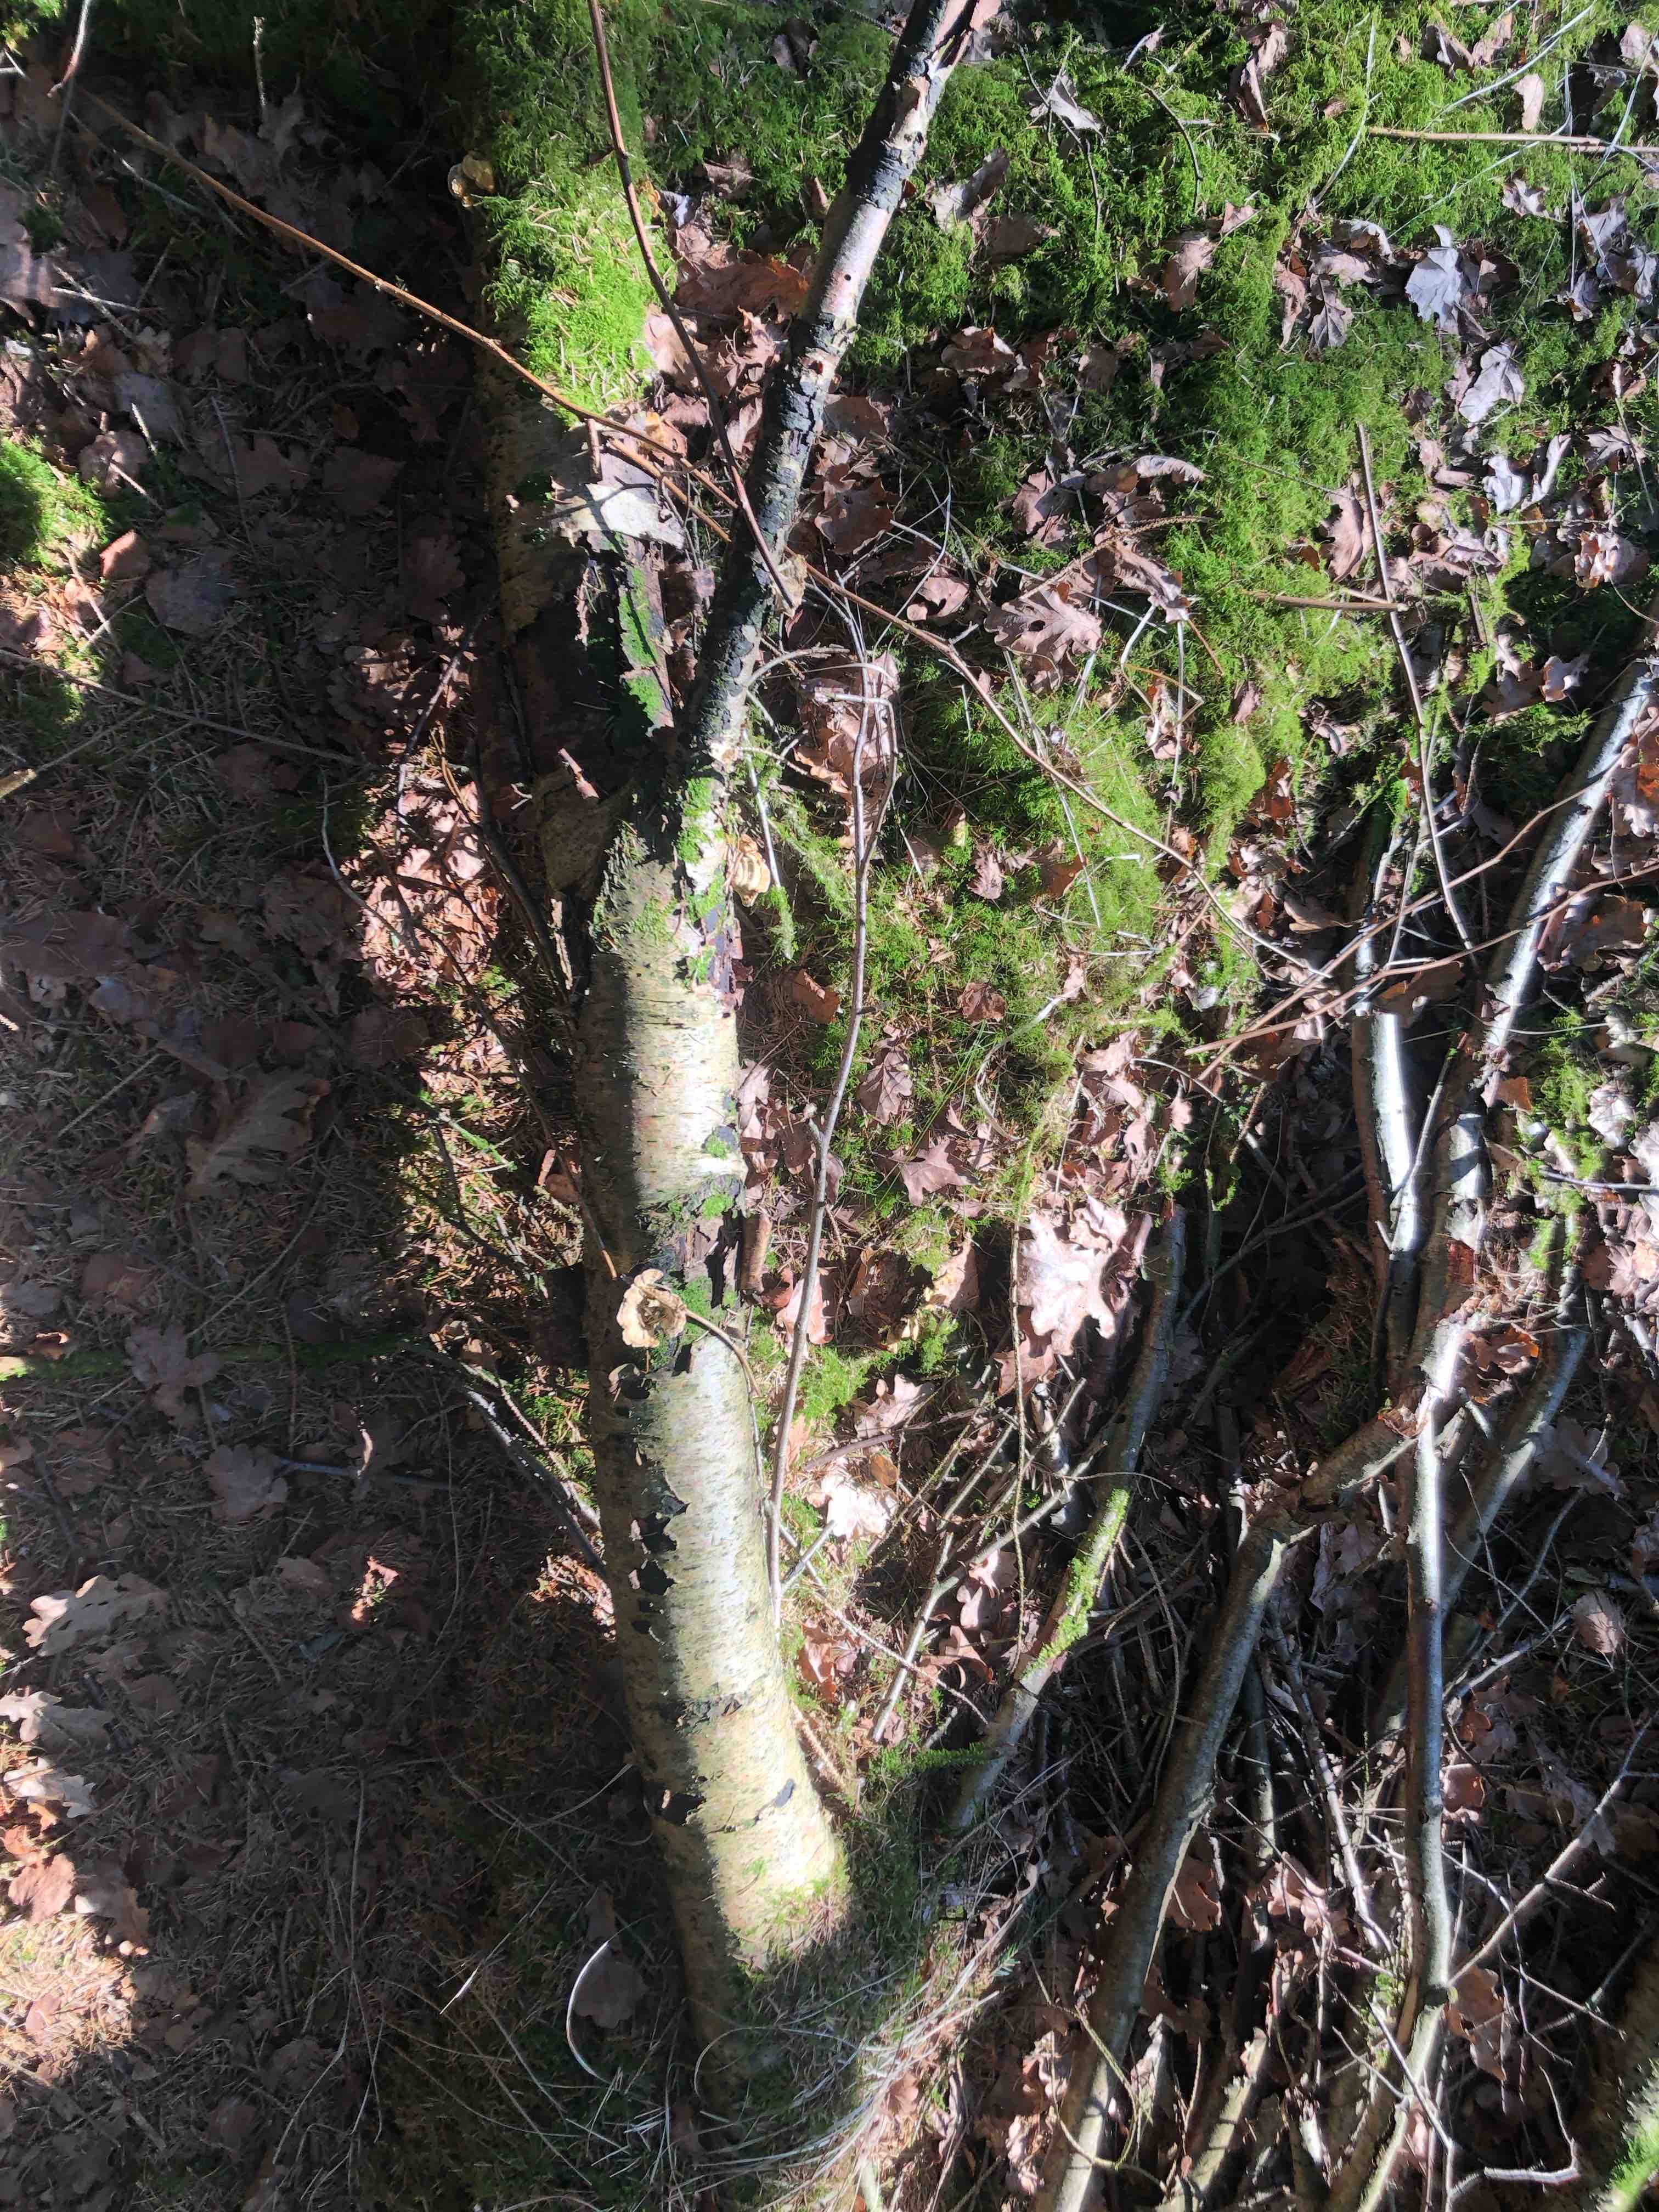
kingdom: Fungi
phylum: Basidiomycota
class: Agaricomycetes
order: Russulales
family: Stereaceae
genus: Stereum
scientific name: Stereum hirsutum
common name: håret lædersvamp
